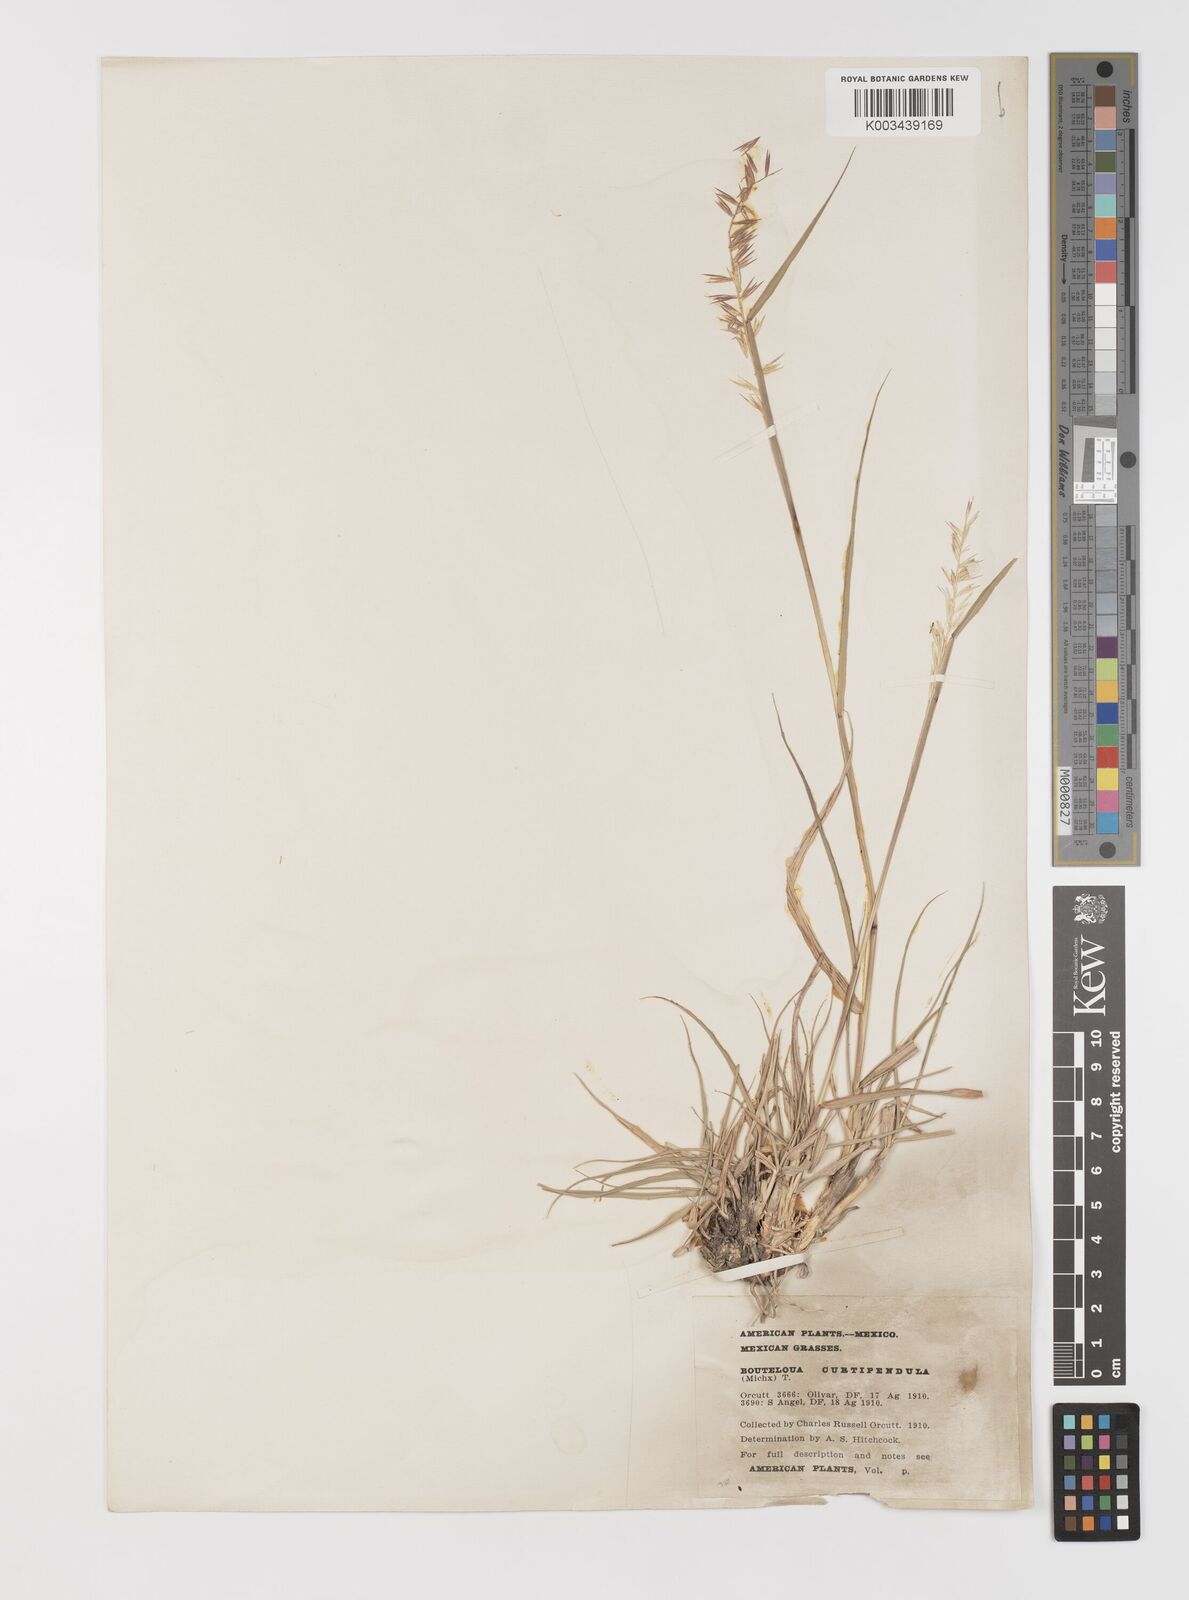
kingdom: Plantae
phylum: Tracheophyta
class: Liliopsida
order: Poales
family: Poaceae
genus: Bouteloua
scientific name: Bouteloua curtipendula
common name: Side-oats grama
